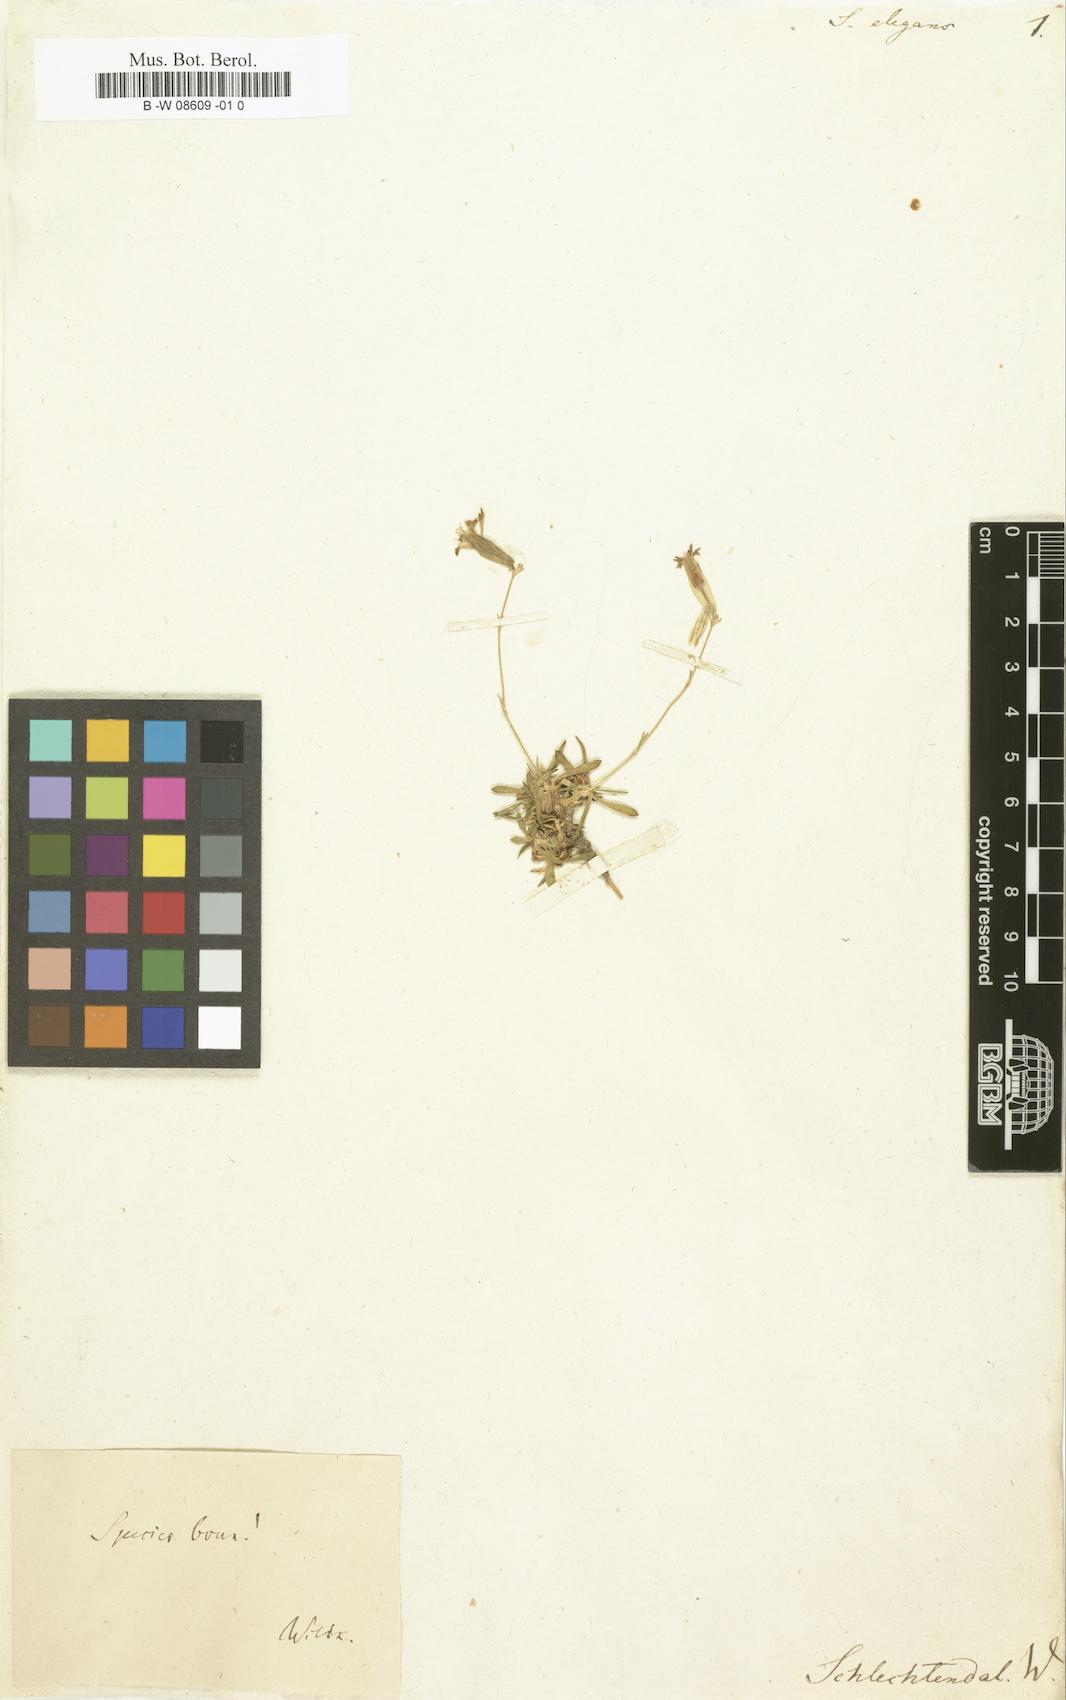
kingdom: Plantae
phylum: Tracheophyta
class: Magnoliopsida
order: Caryophyllales
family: Caryophyllaceae
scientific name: Caryophyllaceae
